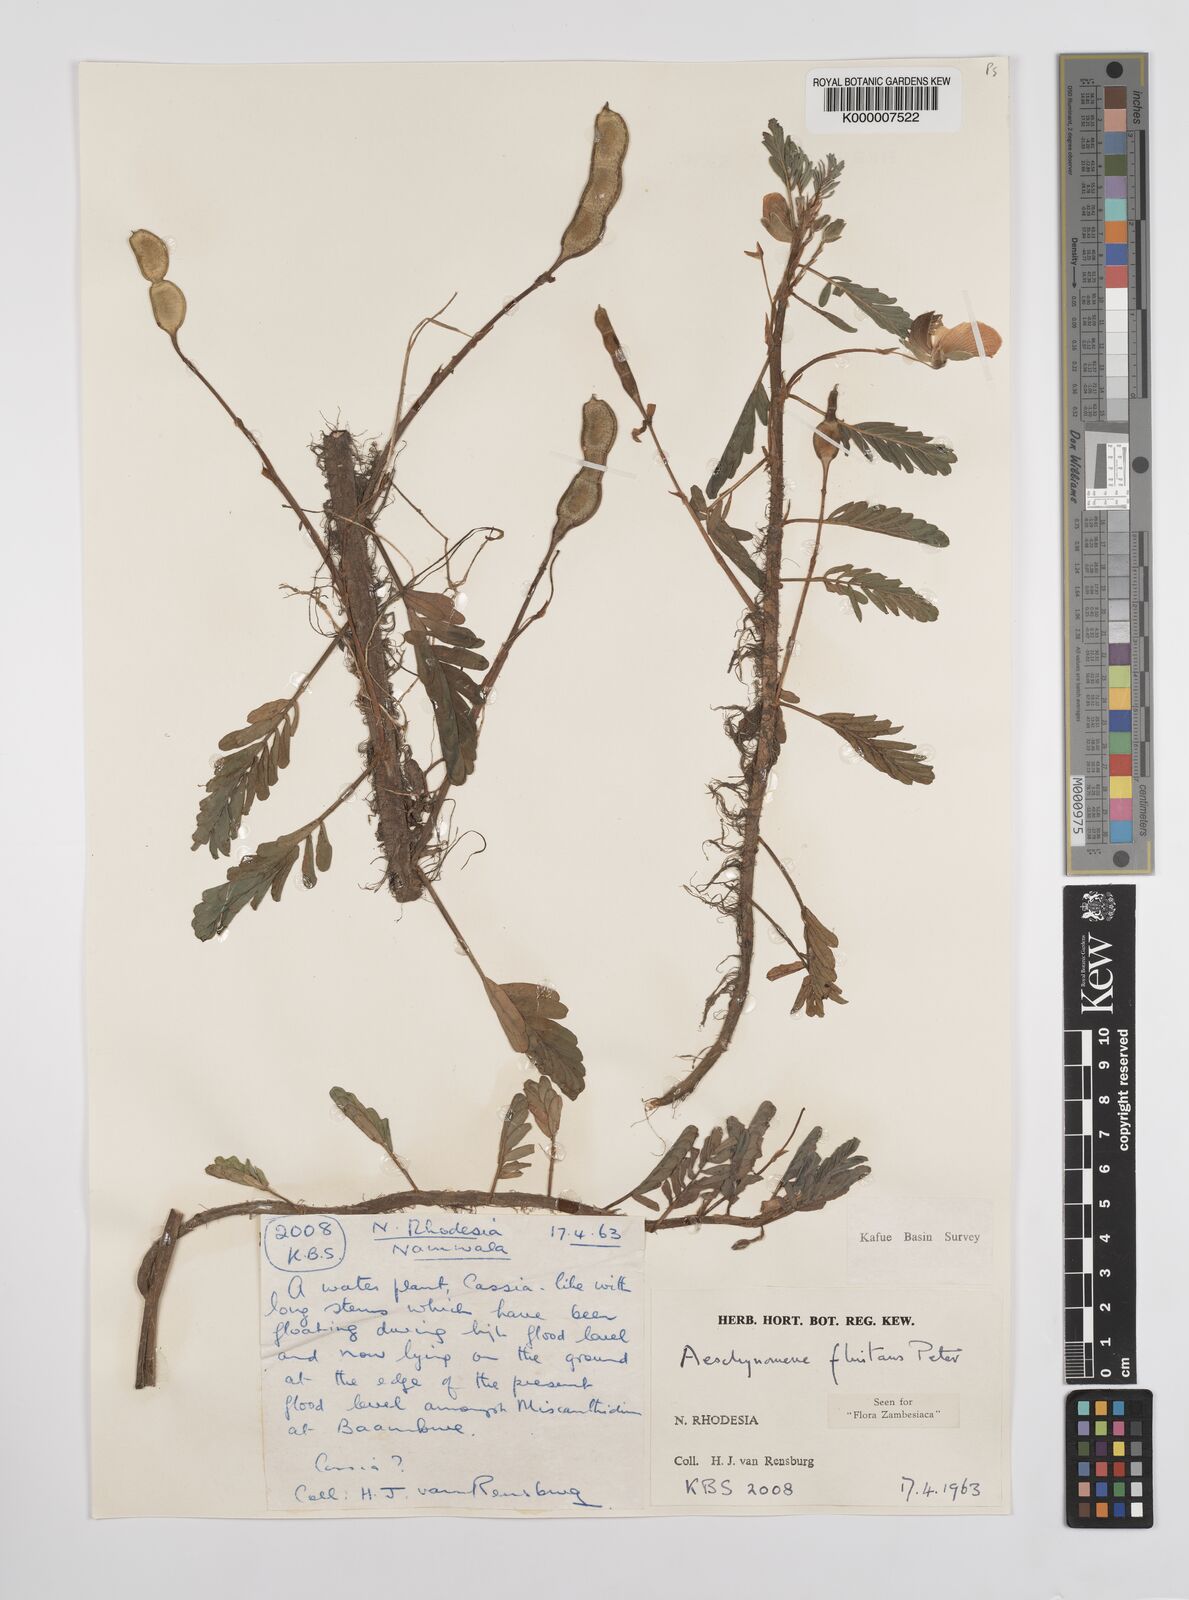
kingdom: Plantae
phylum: Tracheophyta
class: Magnoliopsida
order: Fabales
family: Fabaceae
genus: Aeschynomene
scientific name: Aeschynomene fluitans
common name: Giant water sensitive plant
